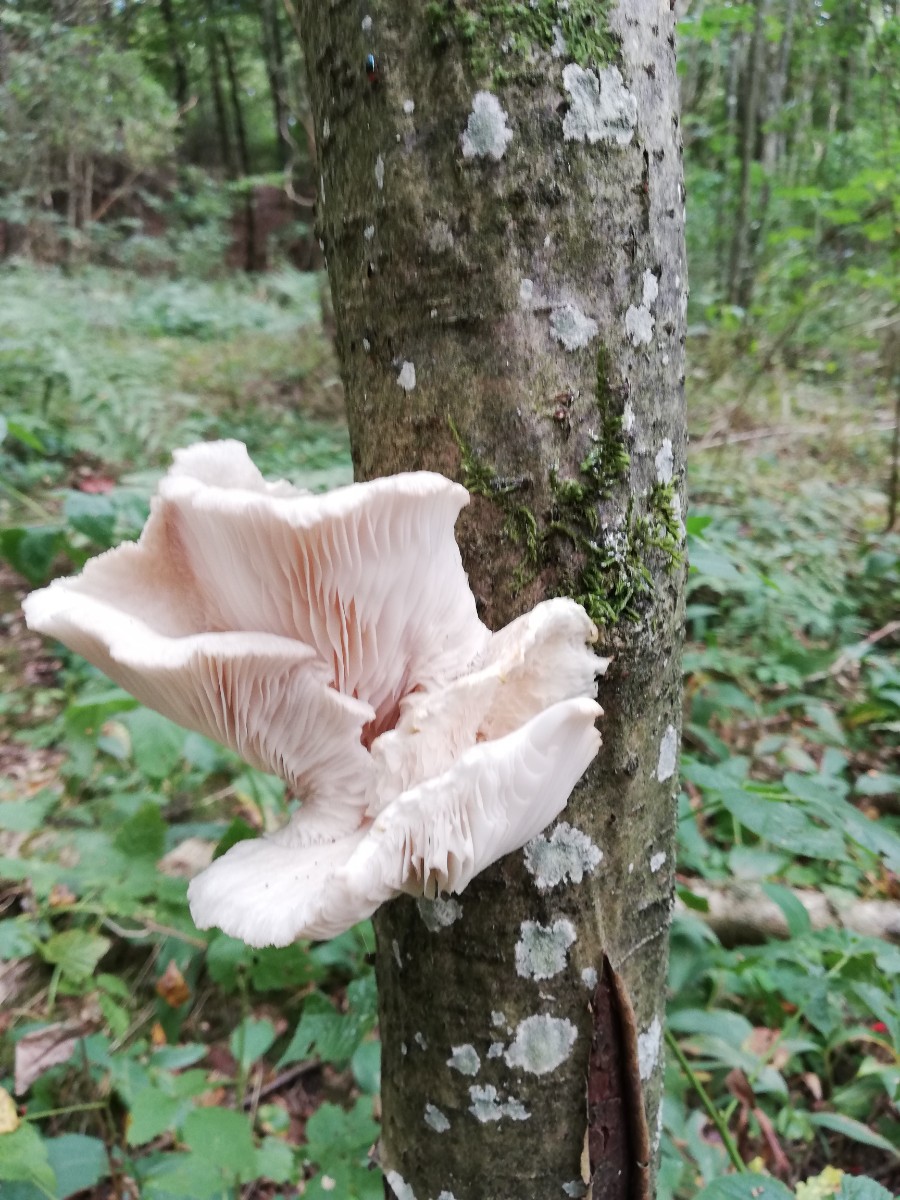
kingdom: Fungi
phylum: Basidiomycota
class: Agaricomycetes
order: Agaricales
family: Pleurotaceae
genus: Pleurotus
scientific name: Pleurotus pulmonarius
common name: sommer-østershat
